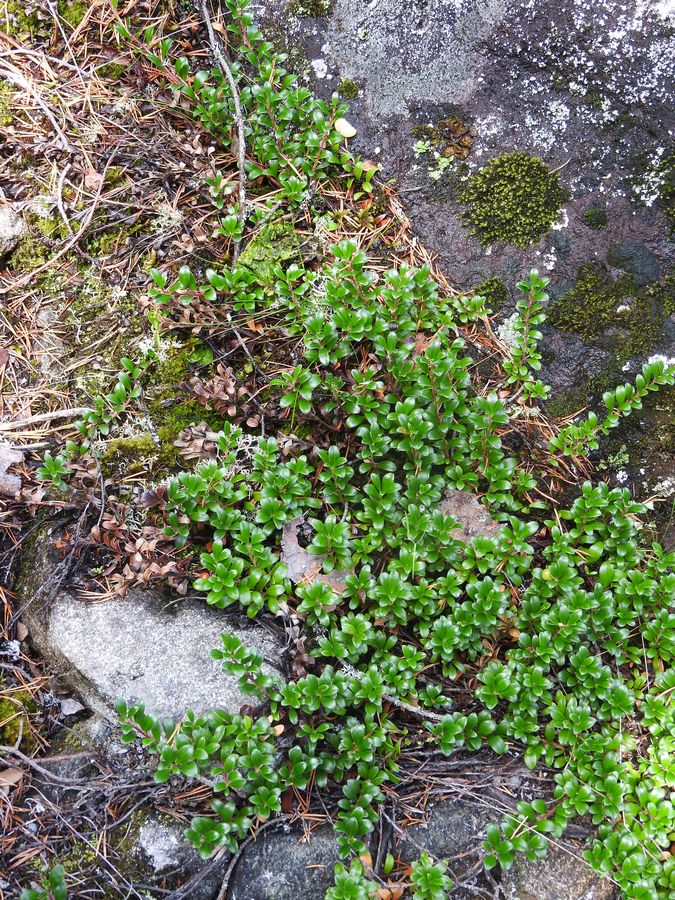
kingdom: Plantae
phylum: Tracheophyta
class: Magnoliopsida
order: Ericales
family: Ericaceae
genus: Arctostaphylos
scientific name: Arctostaphylos uva-ursi
